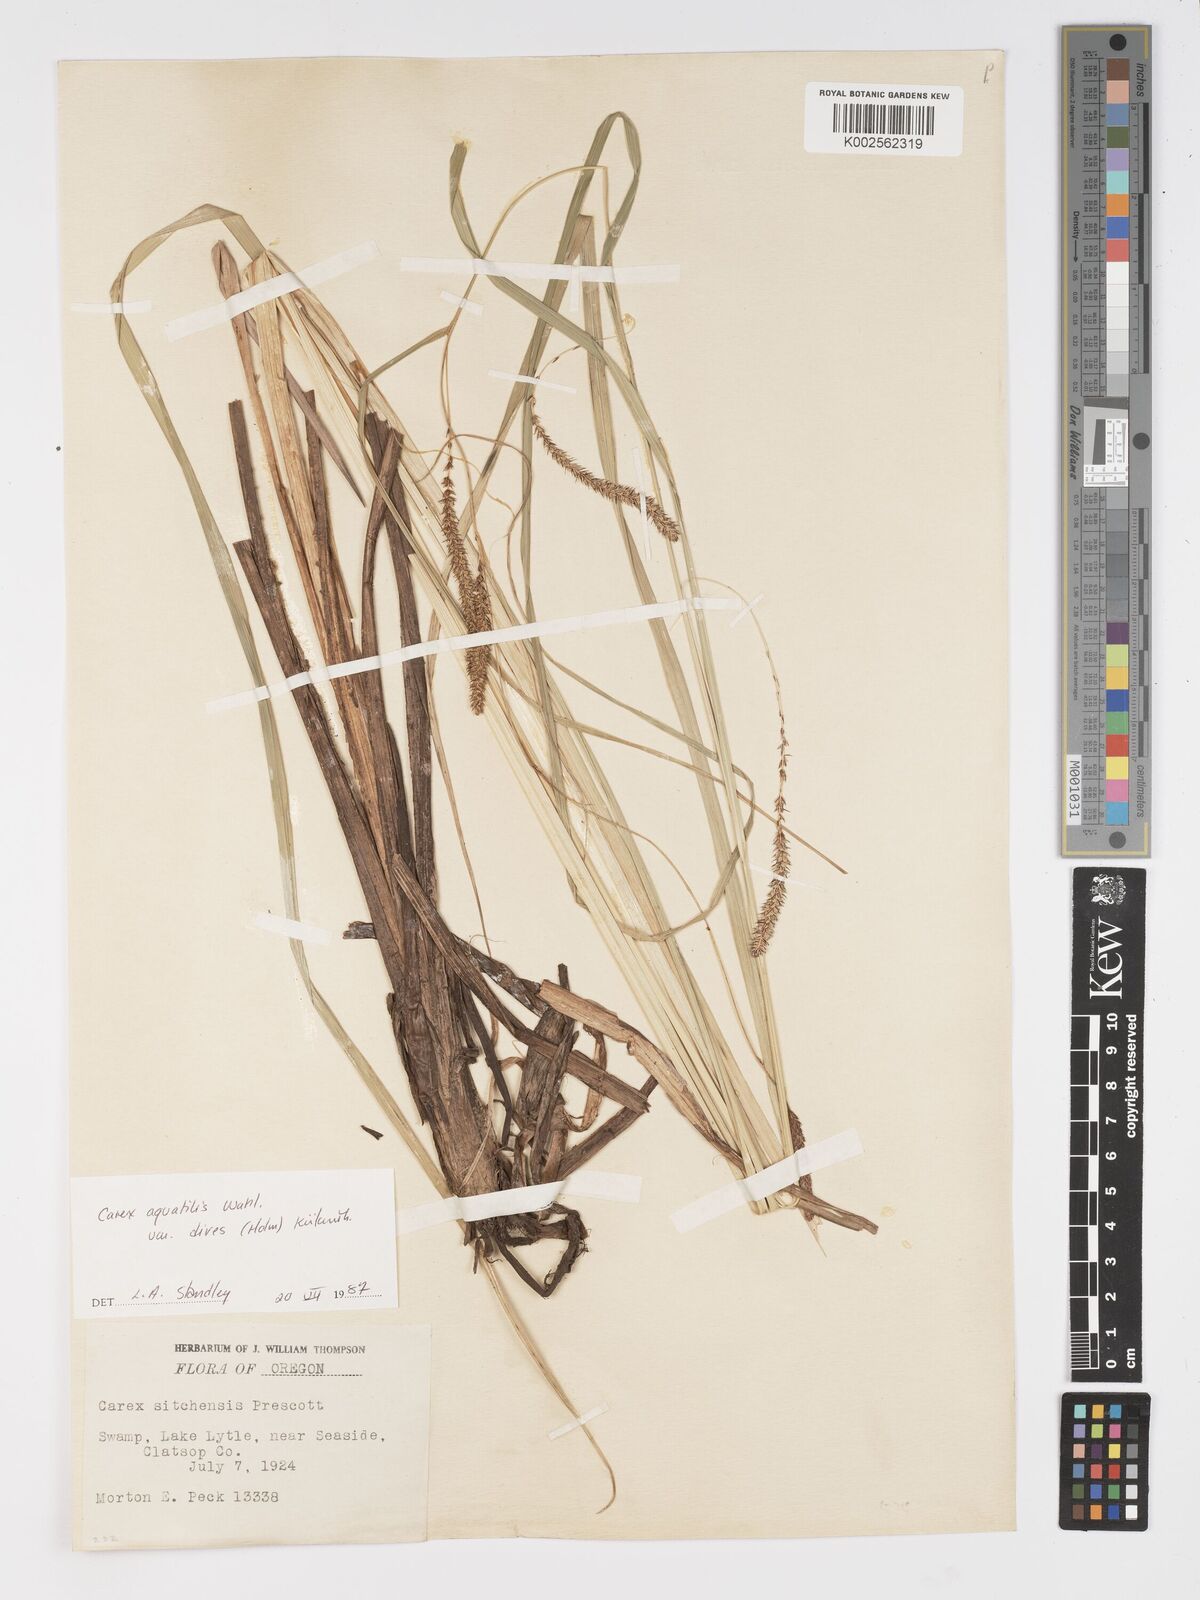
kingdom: Plantae
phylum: Tracheophyta
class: Liliopsida
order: Poales
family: Cyperaceae
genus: Carex
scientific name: Carex aquatilis
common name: Water sedge
